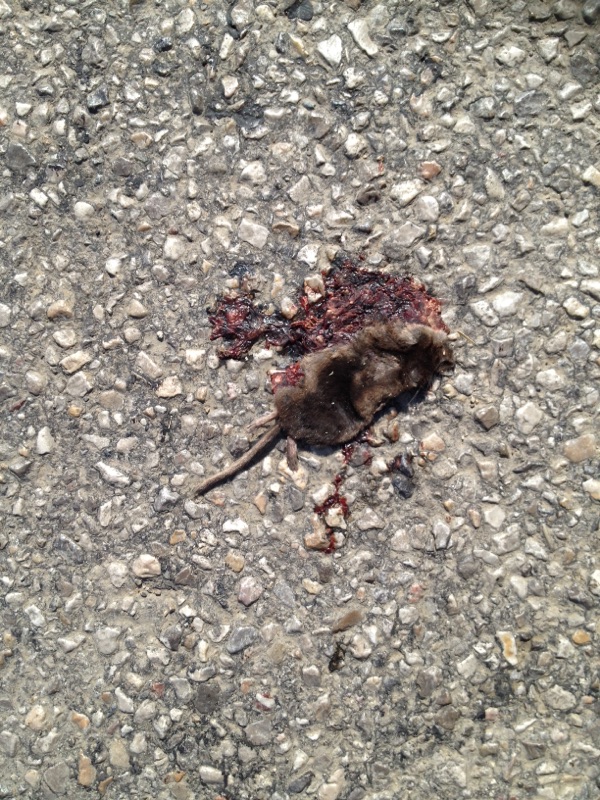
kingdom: Animalia
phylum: Chordata
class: Mammalia
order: Soricomorpha
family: Soricidae
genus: Sorex
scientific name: Sorex araneus
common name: Common shrew
